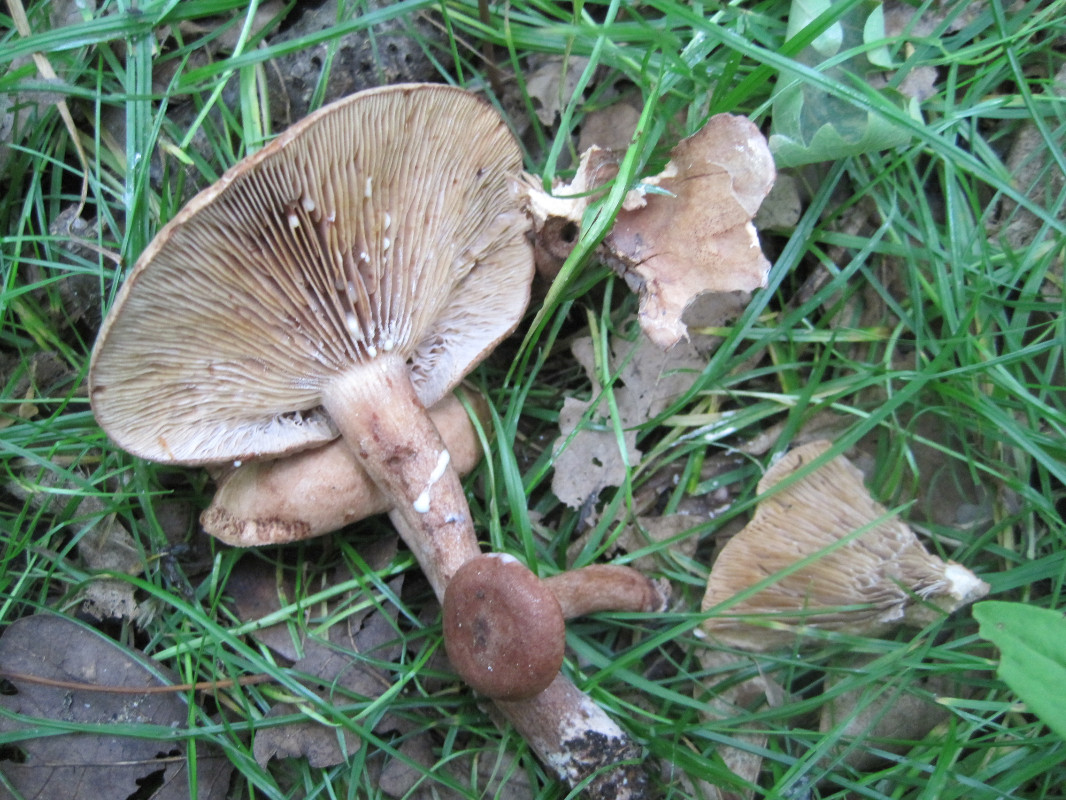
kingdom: Fungi
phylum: Basidiomycota
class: Agaricomycetes
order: Russulales
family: Russulaceae
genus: Lactarius
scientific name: Lactarius camphoratus
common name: kamfer-mælkehat
